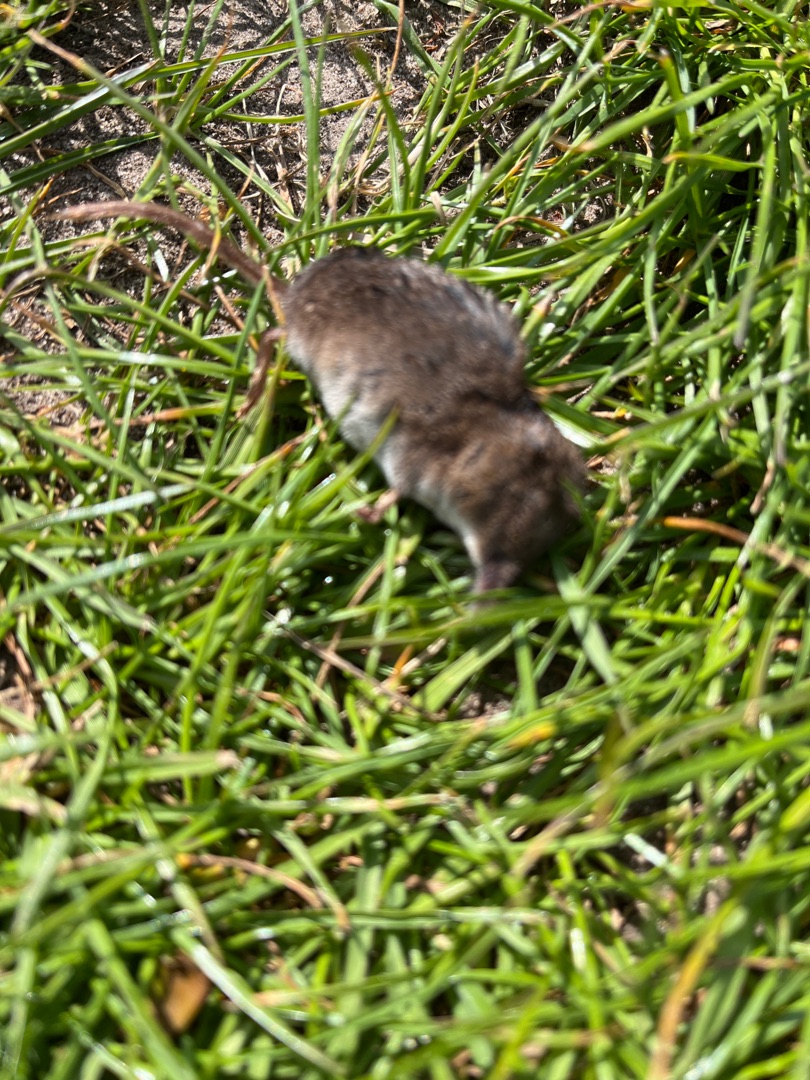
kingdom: Animalia
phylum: Chordata
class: Mammalia
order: Soricomorpha
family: Soricidae
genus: Sorex
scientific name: Sorex araneus
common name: Almindelig spidsmus
